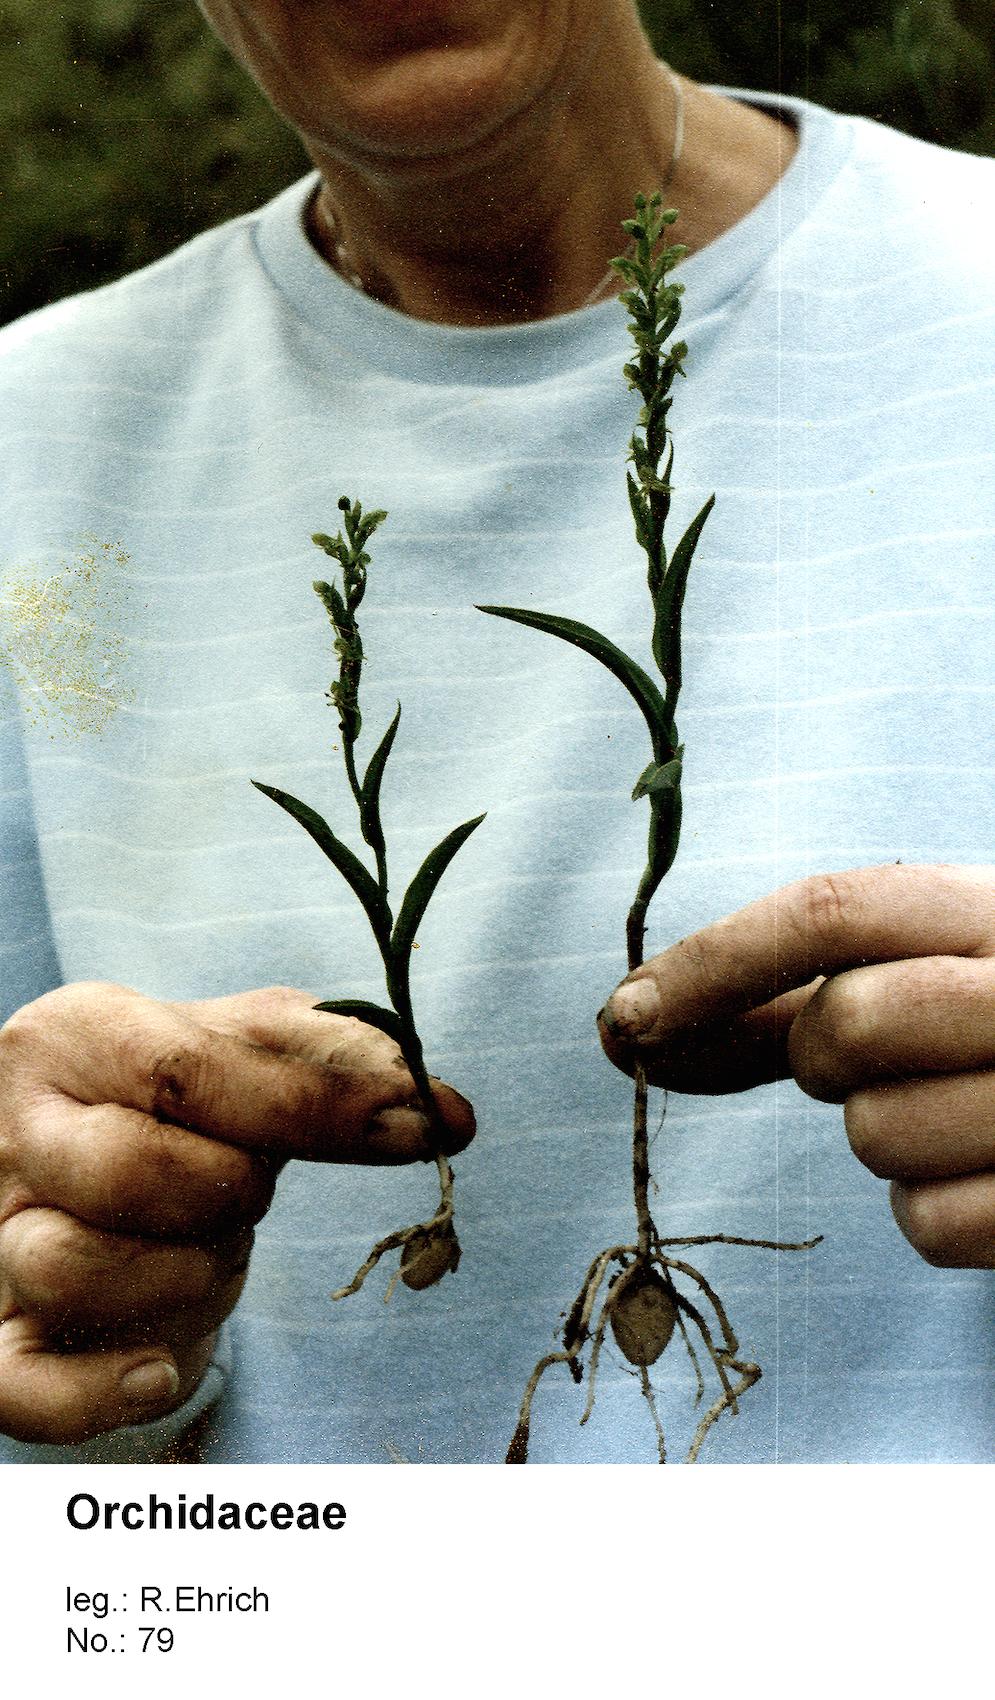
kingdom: Plantae
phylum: Tracheophyta
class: Liliopsida
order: Asparagales
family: Orchidaceae
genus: Habenaria
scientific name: Habenaria
